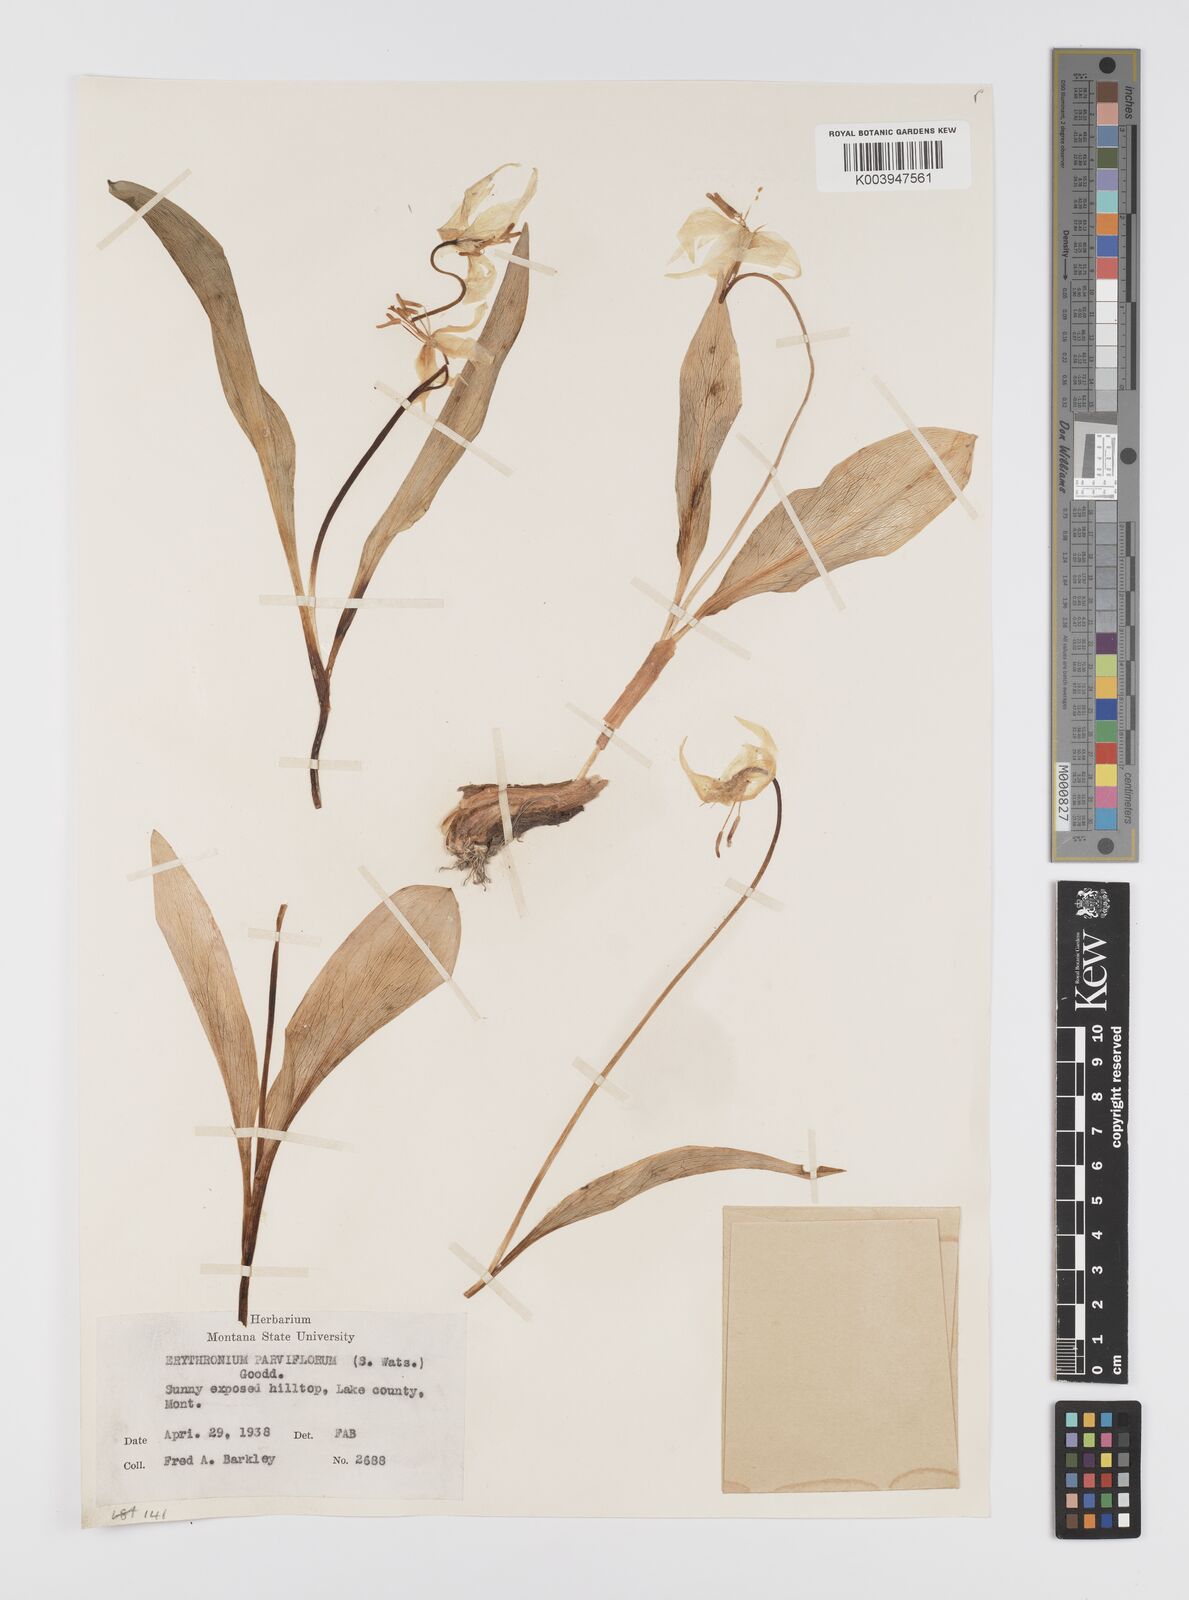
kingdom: Plantae
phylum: Tracheophyta
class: Liliopsida
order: Liliales
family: Liliaceae
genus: Erythronium
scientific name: Erythronium grandiflorum
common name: Avalanche-lily
